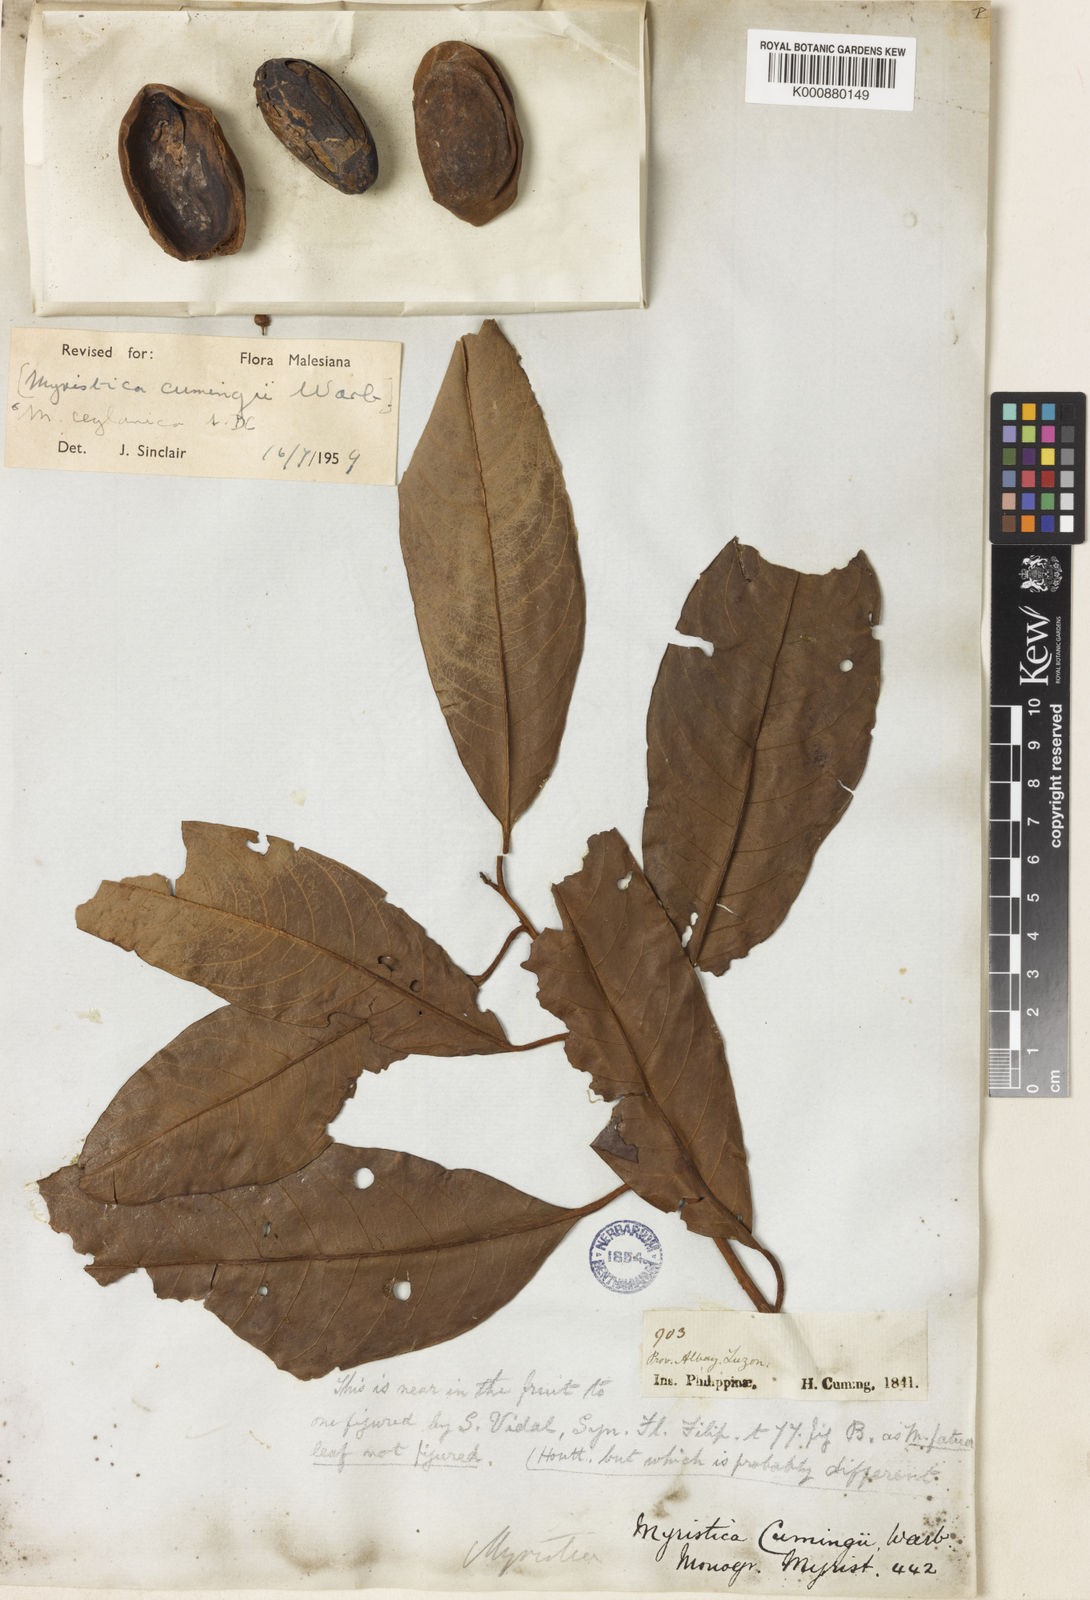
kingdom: Plantae
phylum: Tracheophyta
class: Magnoliopsida
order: Magnoliales
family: Myristicaceae
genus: Myristica
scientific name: Myristica ceylanica
